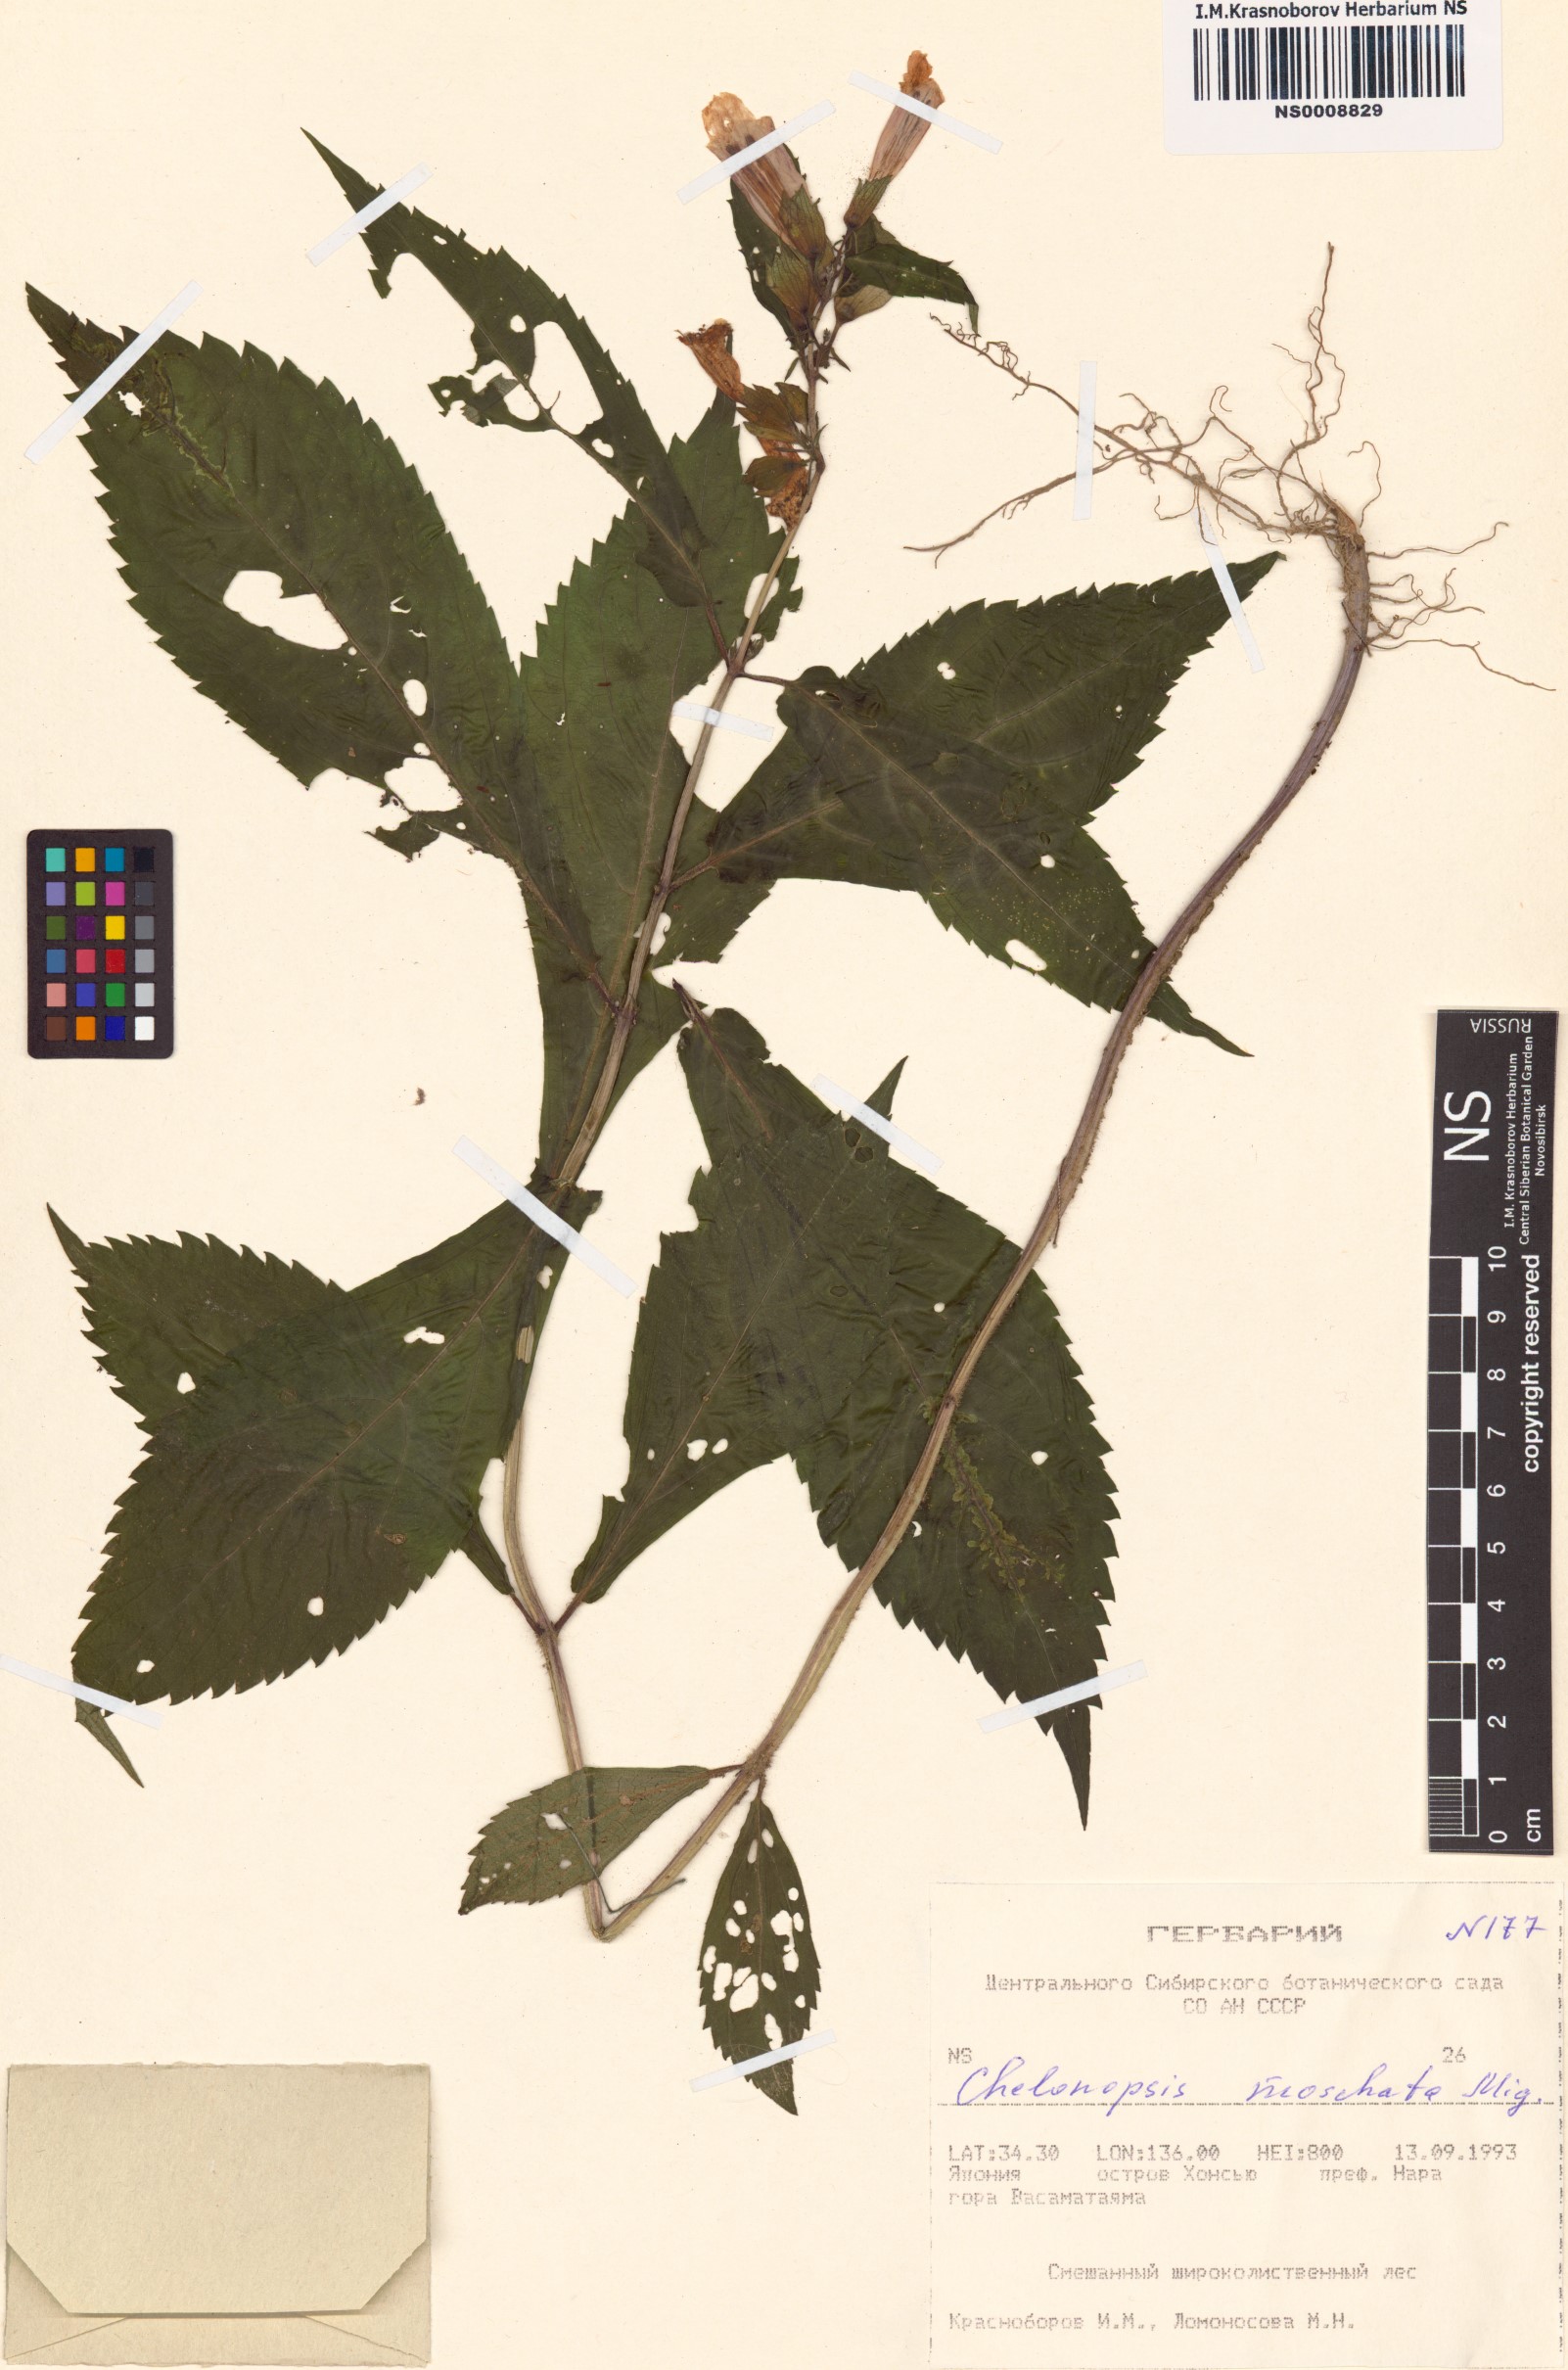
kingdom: Plantae
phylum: Tracheophyta
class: Magnoliopsida
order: Lamiales
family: Lamiaceae
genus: Chelonopsis
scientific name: Chelonopsis moschata
